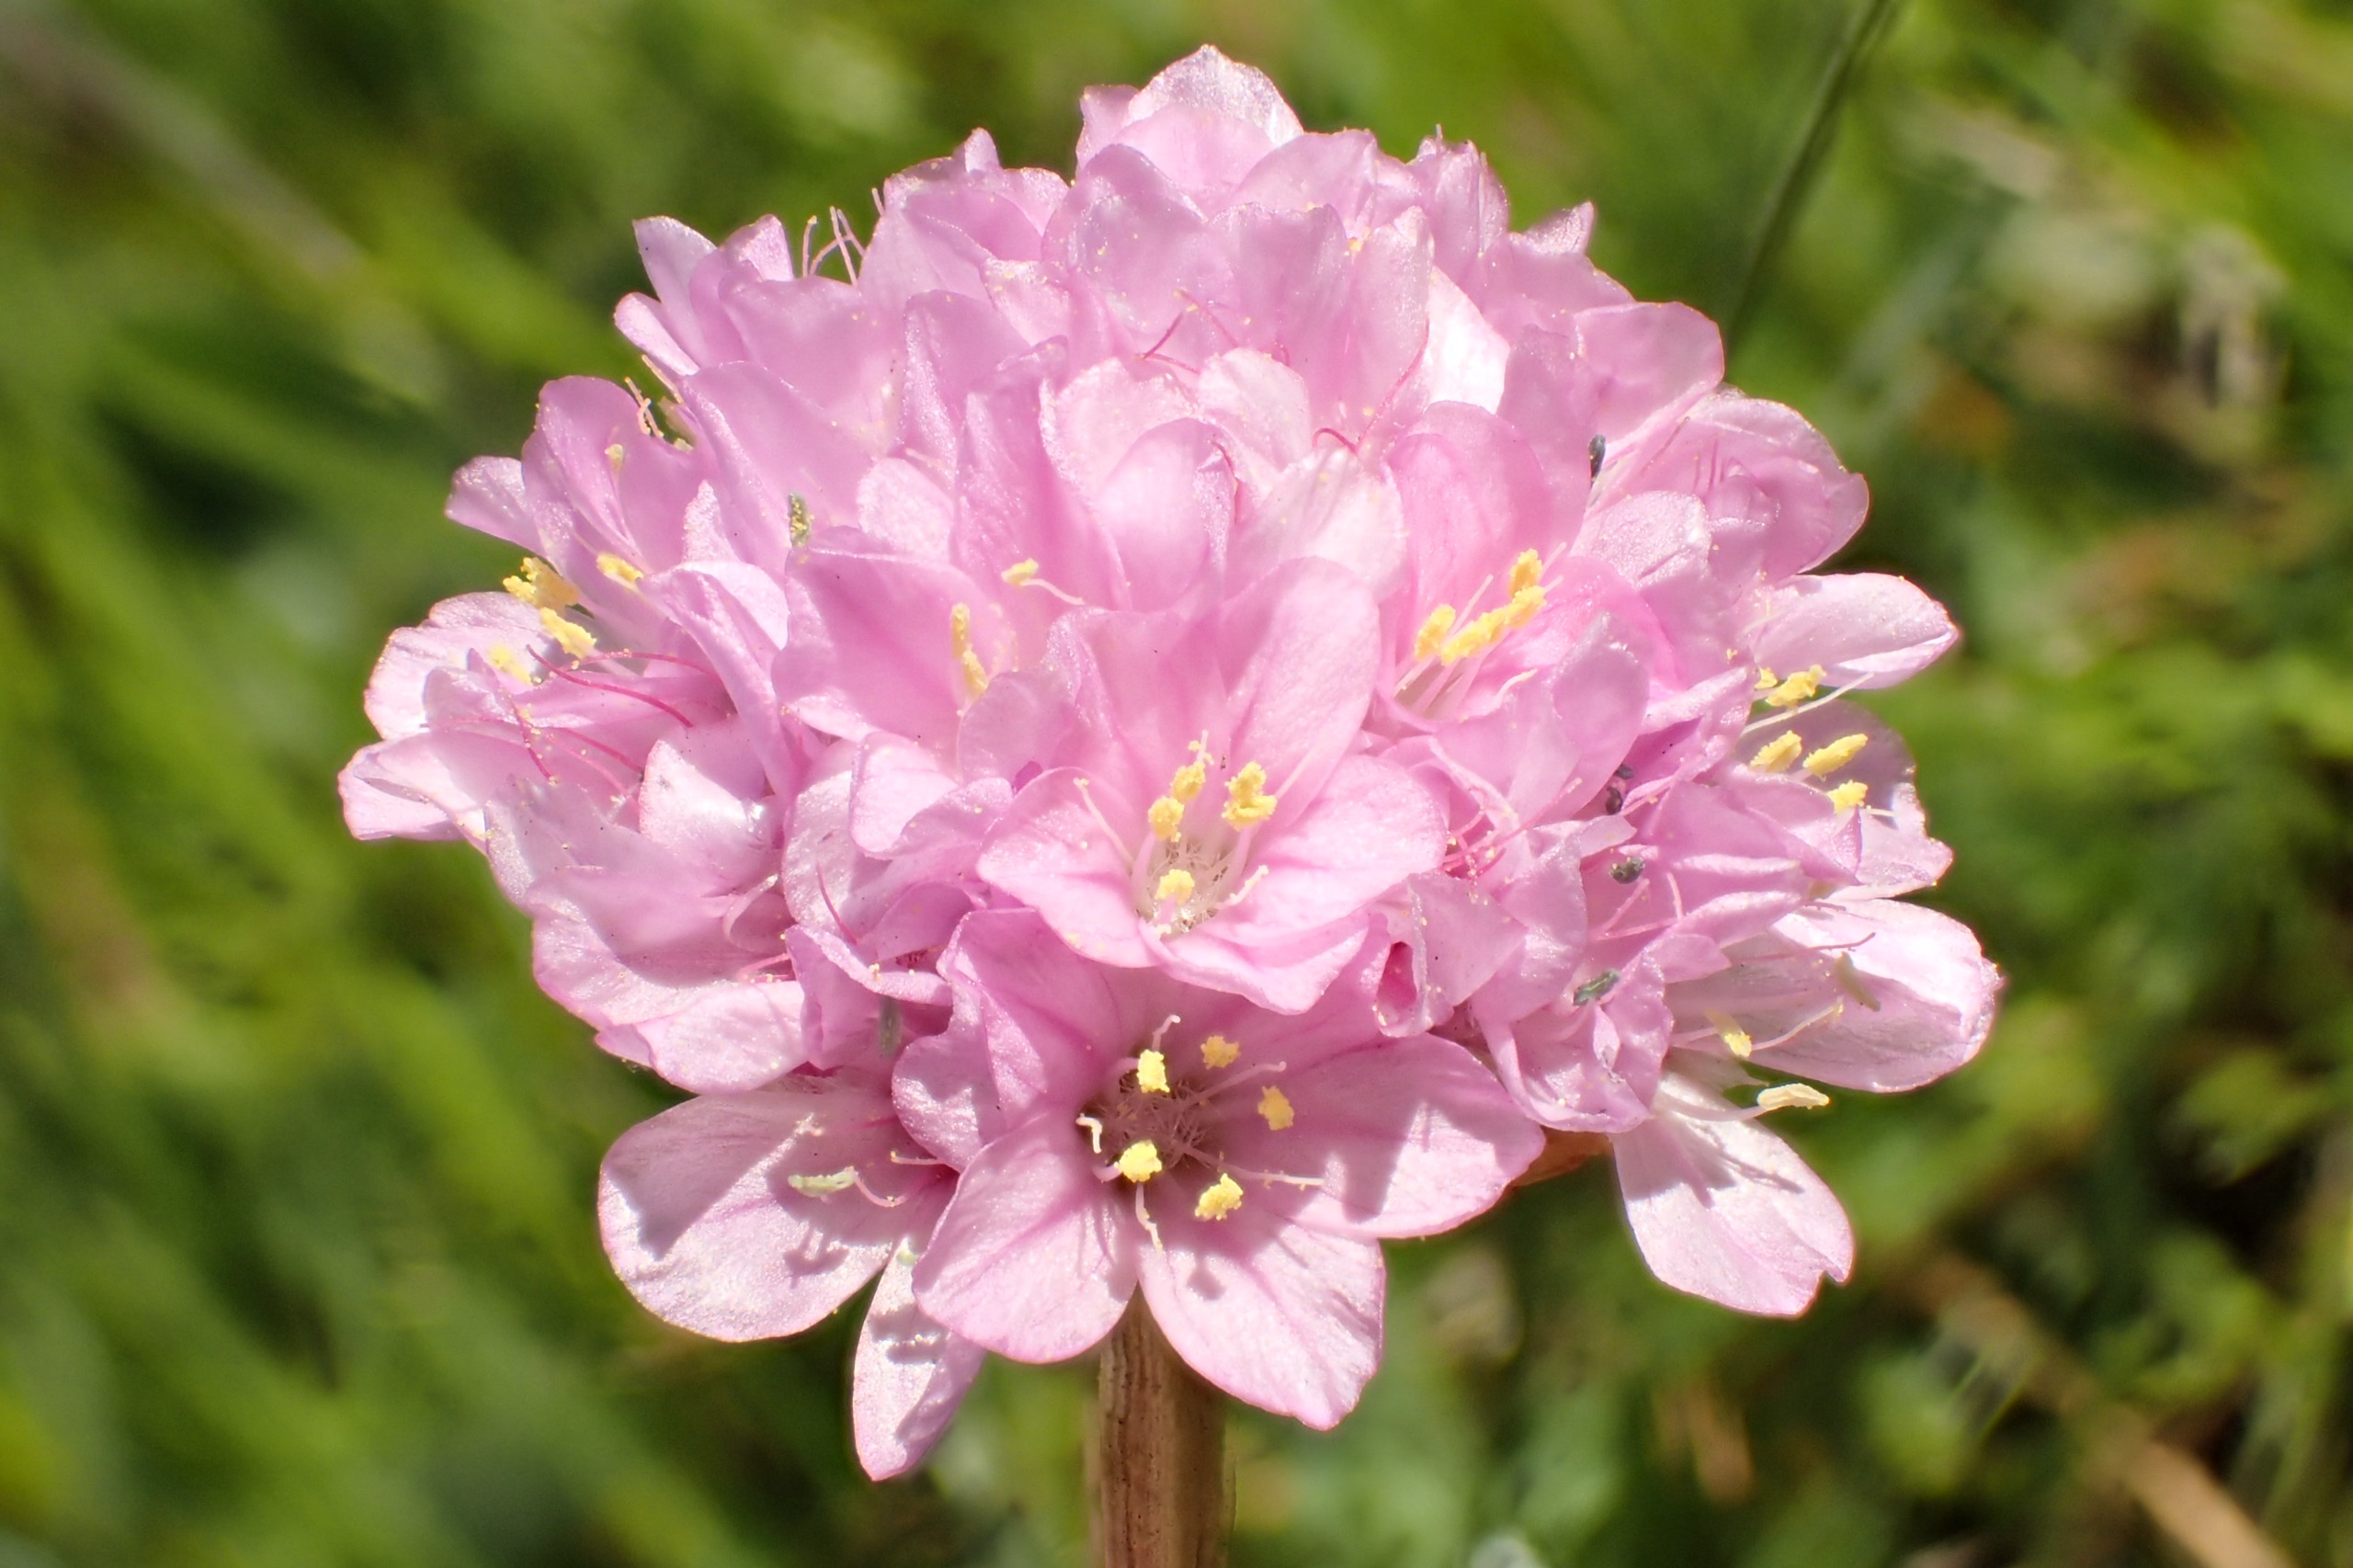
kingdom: Plantae
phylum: Tracheophyta
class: Magnoliopsida
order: Caryophyllales
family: Plumbaginaceae
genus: Armeria
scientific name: Armeria maritima
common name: Engelskgræs
